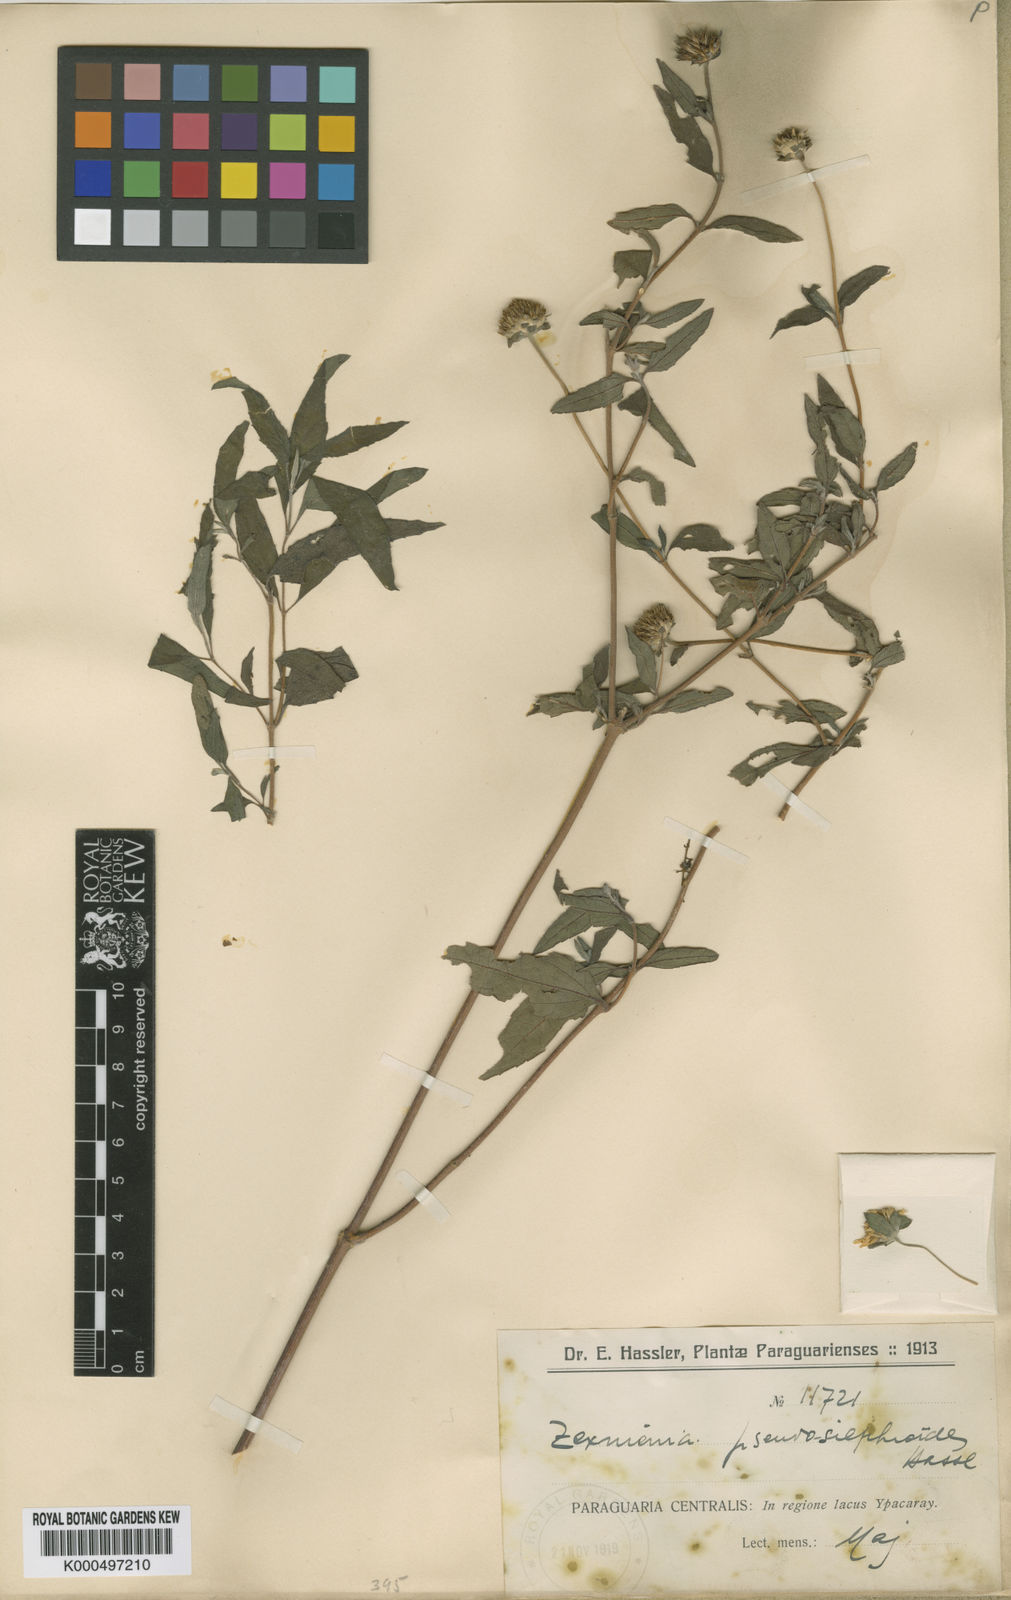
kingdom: Plantae
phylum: Tracheophyta
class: Magnoliopsida
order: Asterales
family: Asteraceae
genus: Dimerostemma
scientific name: Dimerostemma pseudosilphioides
